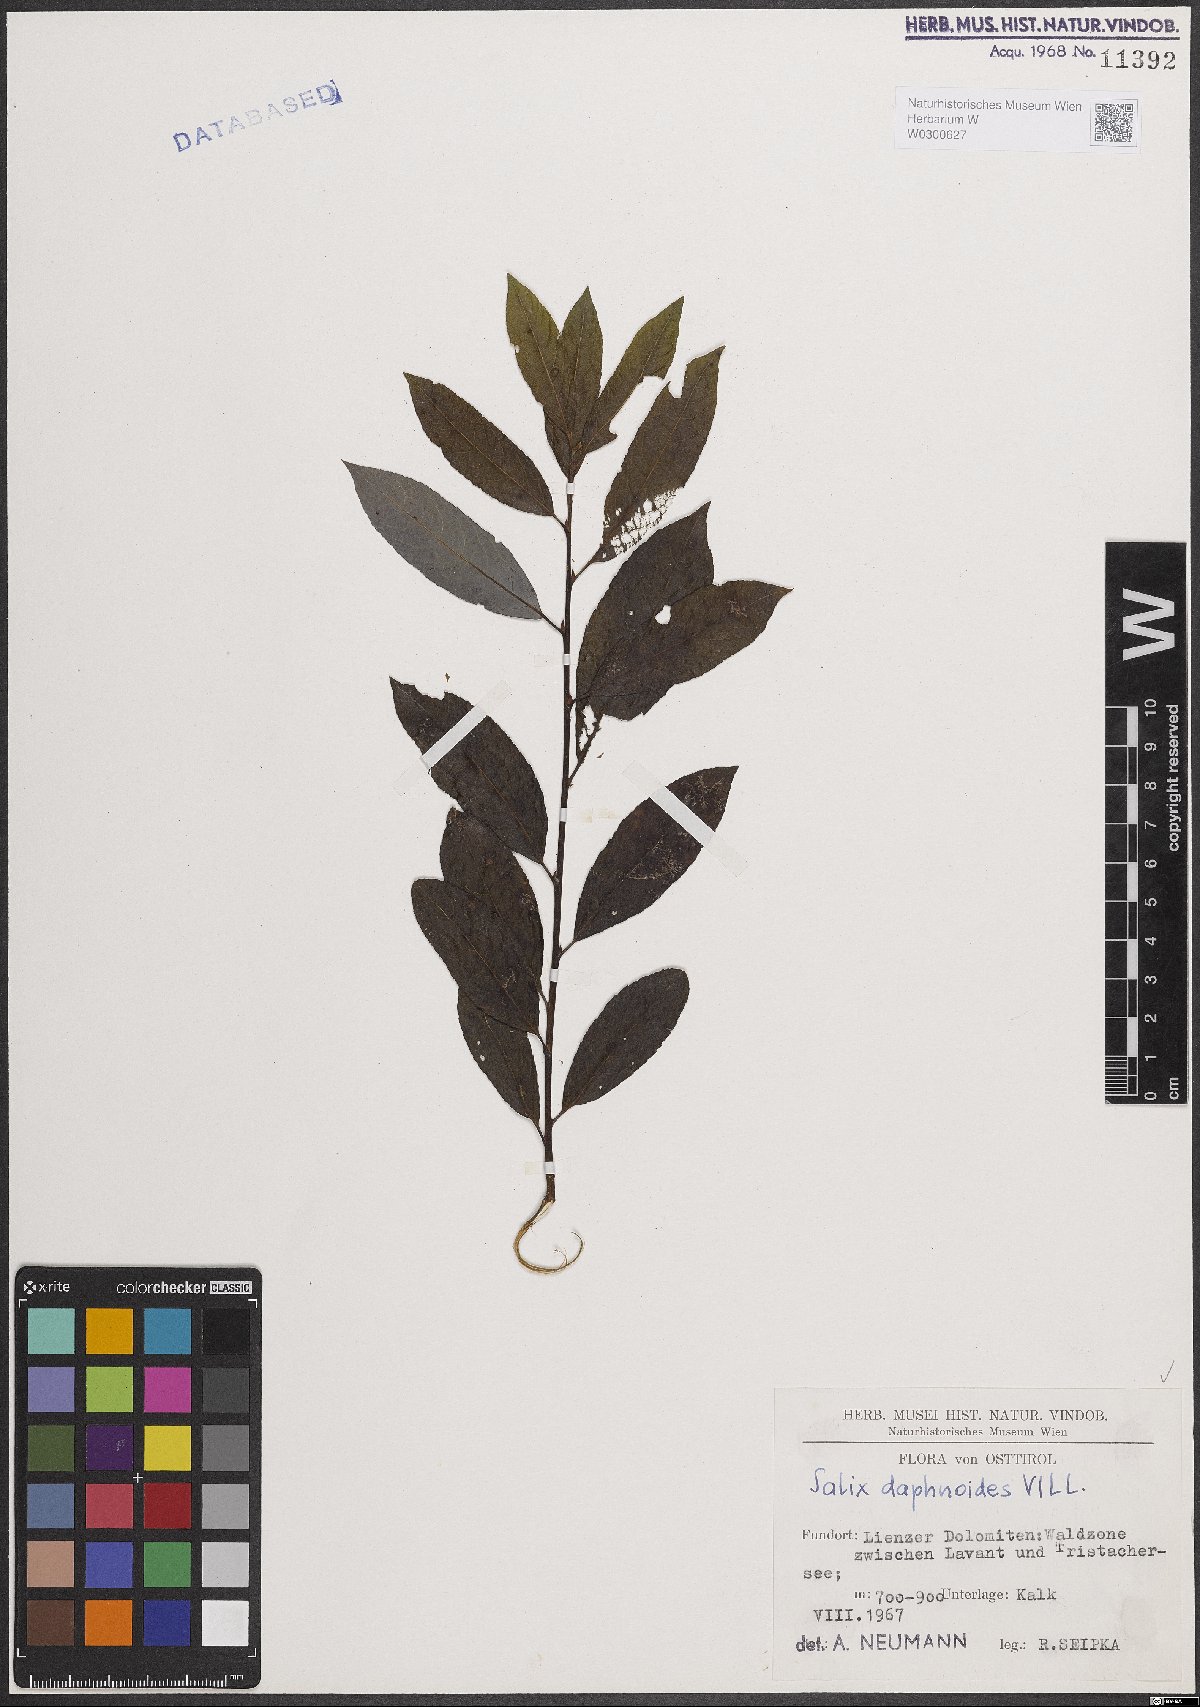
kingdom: Plantae
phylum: Tracheophyta
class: Magnoliopsida
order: Malpighiales
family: Salicaceae
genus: Salix
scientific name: Salix daphnoides
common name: European violet-willow
